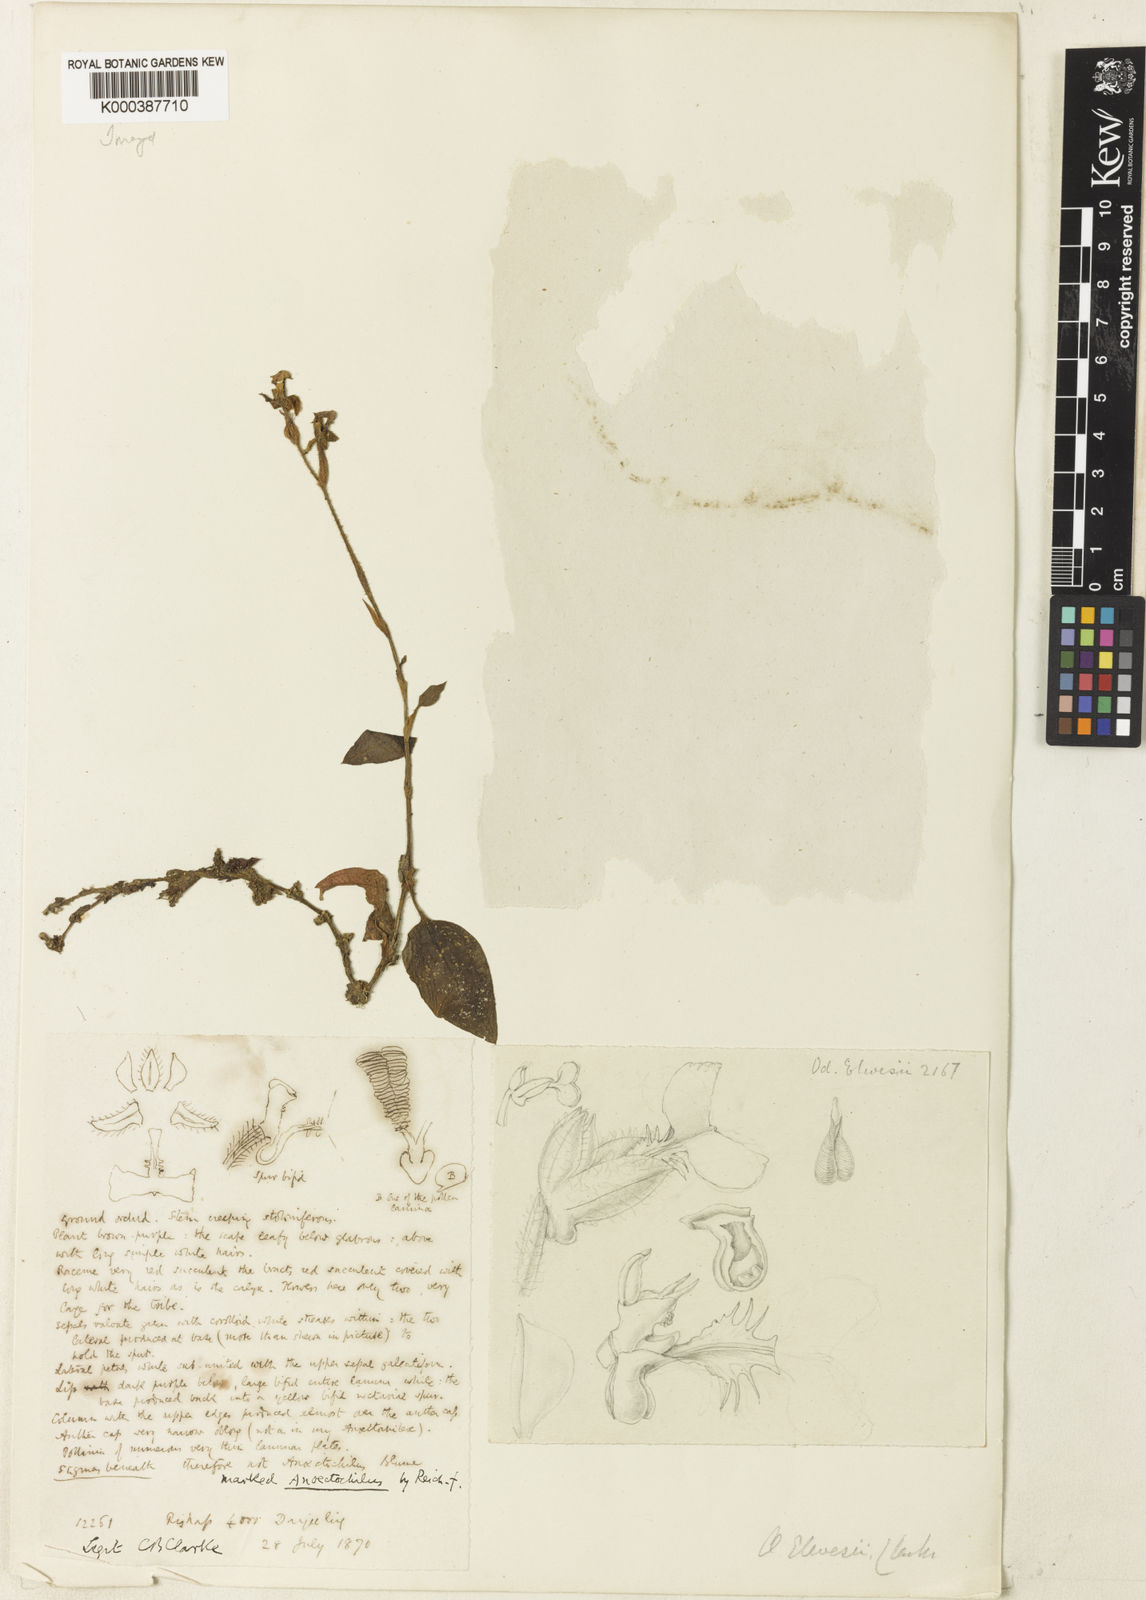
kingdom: Plantae
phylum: Tracheophyta
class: Liliopsida
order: Asparagales
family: Orchidaceae
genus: Odontochilus
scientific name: Odontochilus elwesii
